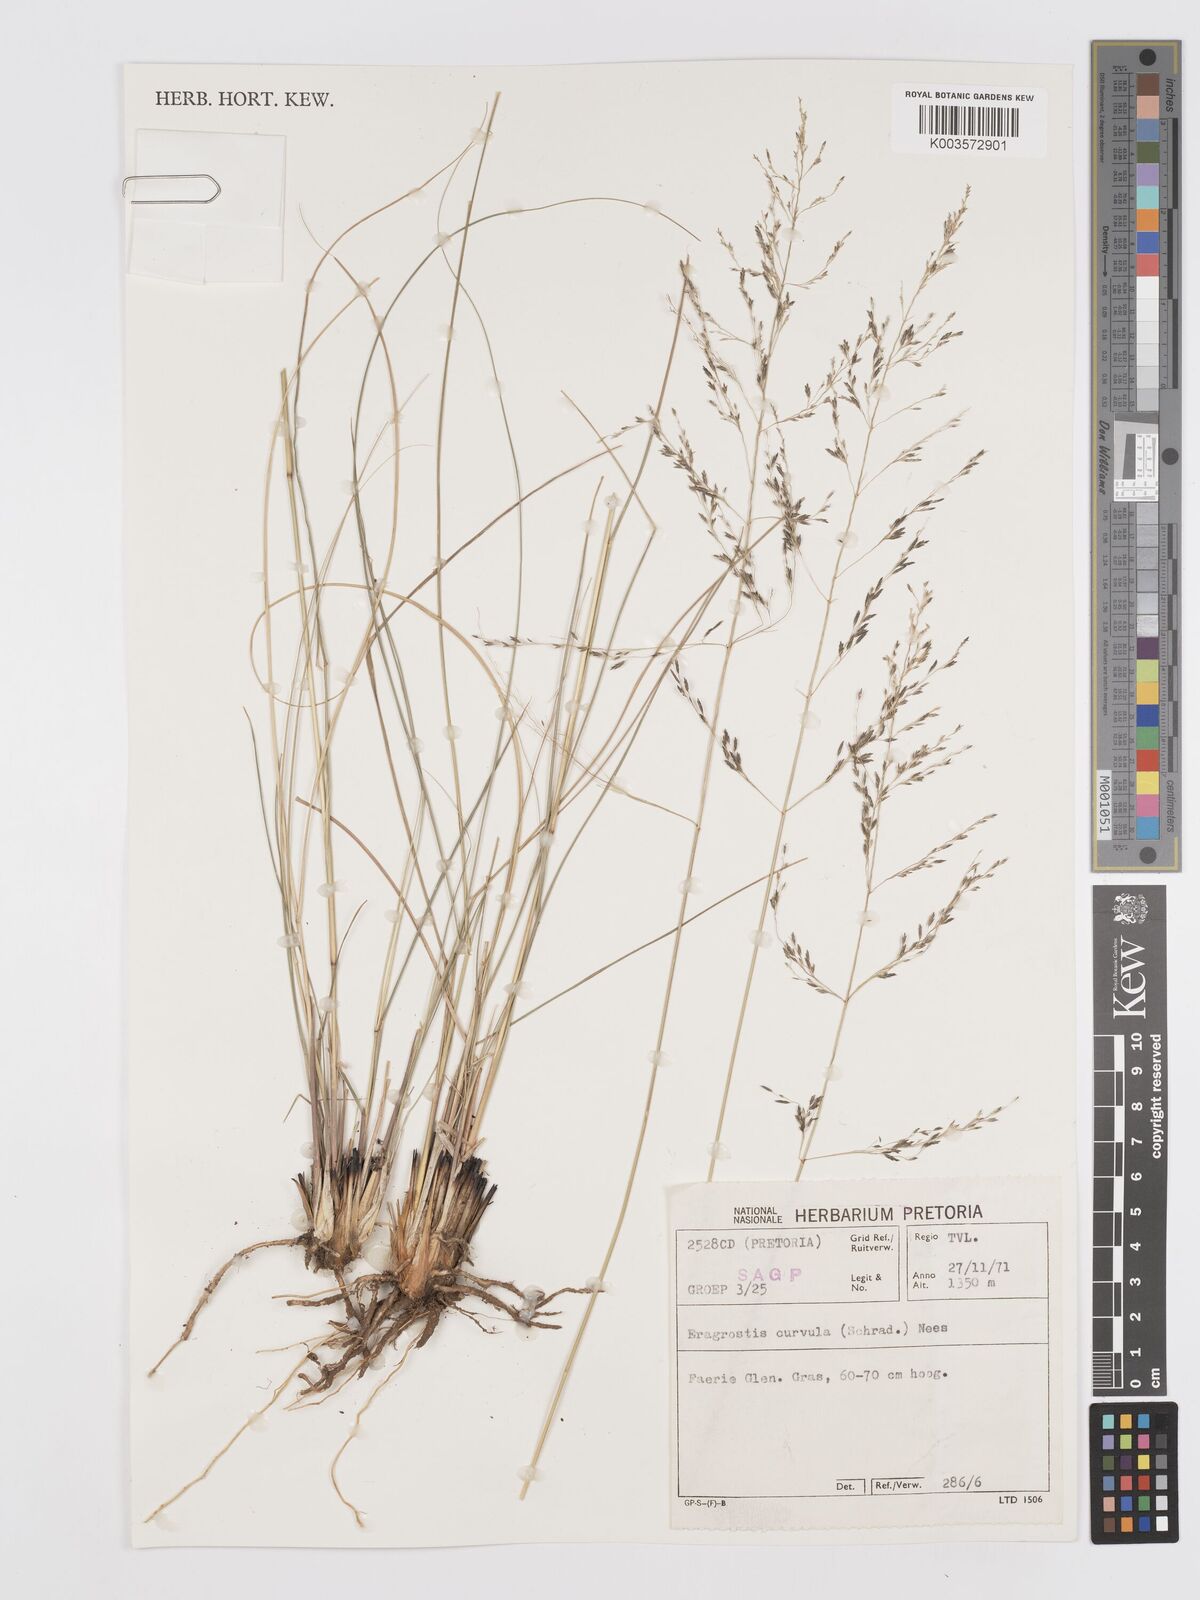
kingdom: Plantae
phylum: Tracheophyta
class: Liliopsida
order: Poales
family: Poaceae
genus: Eragrostis
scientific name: Eragrostis curvula
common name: African love-grass
